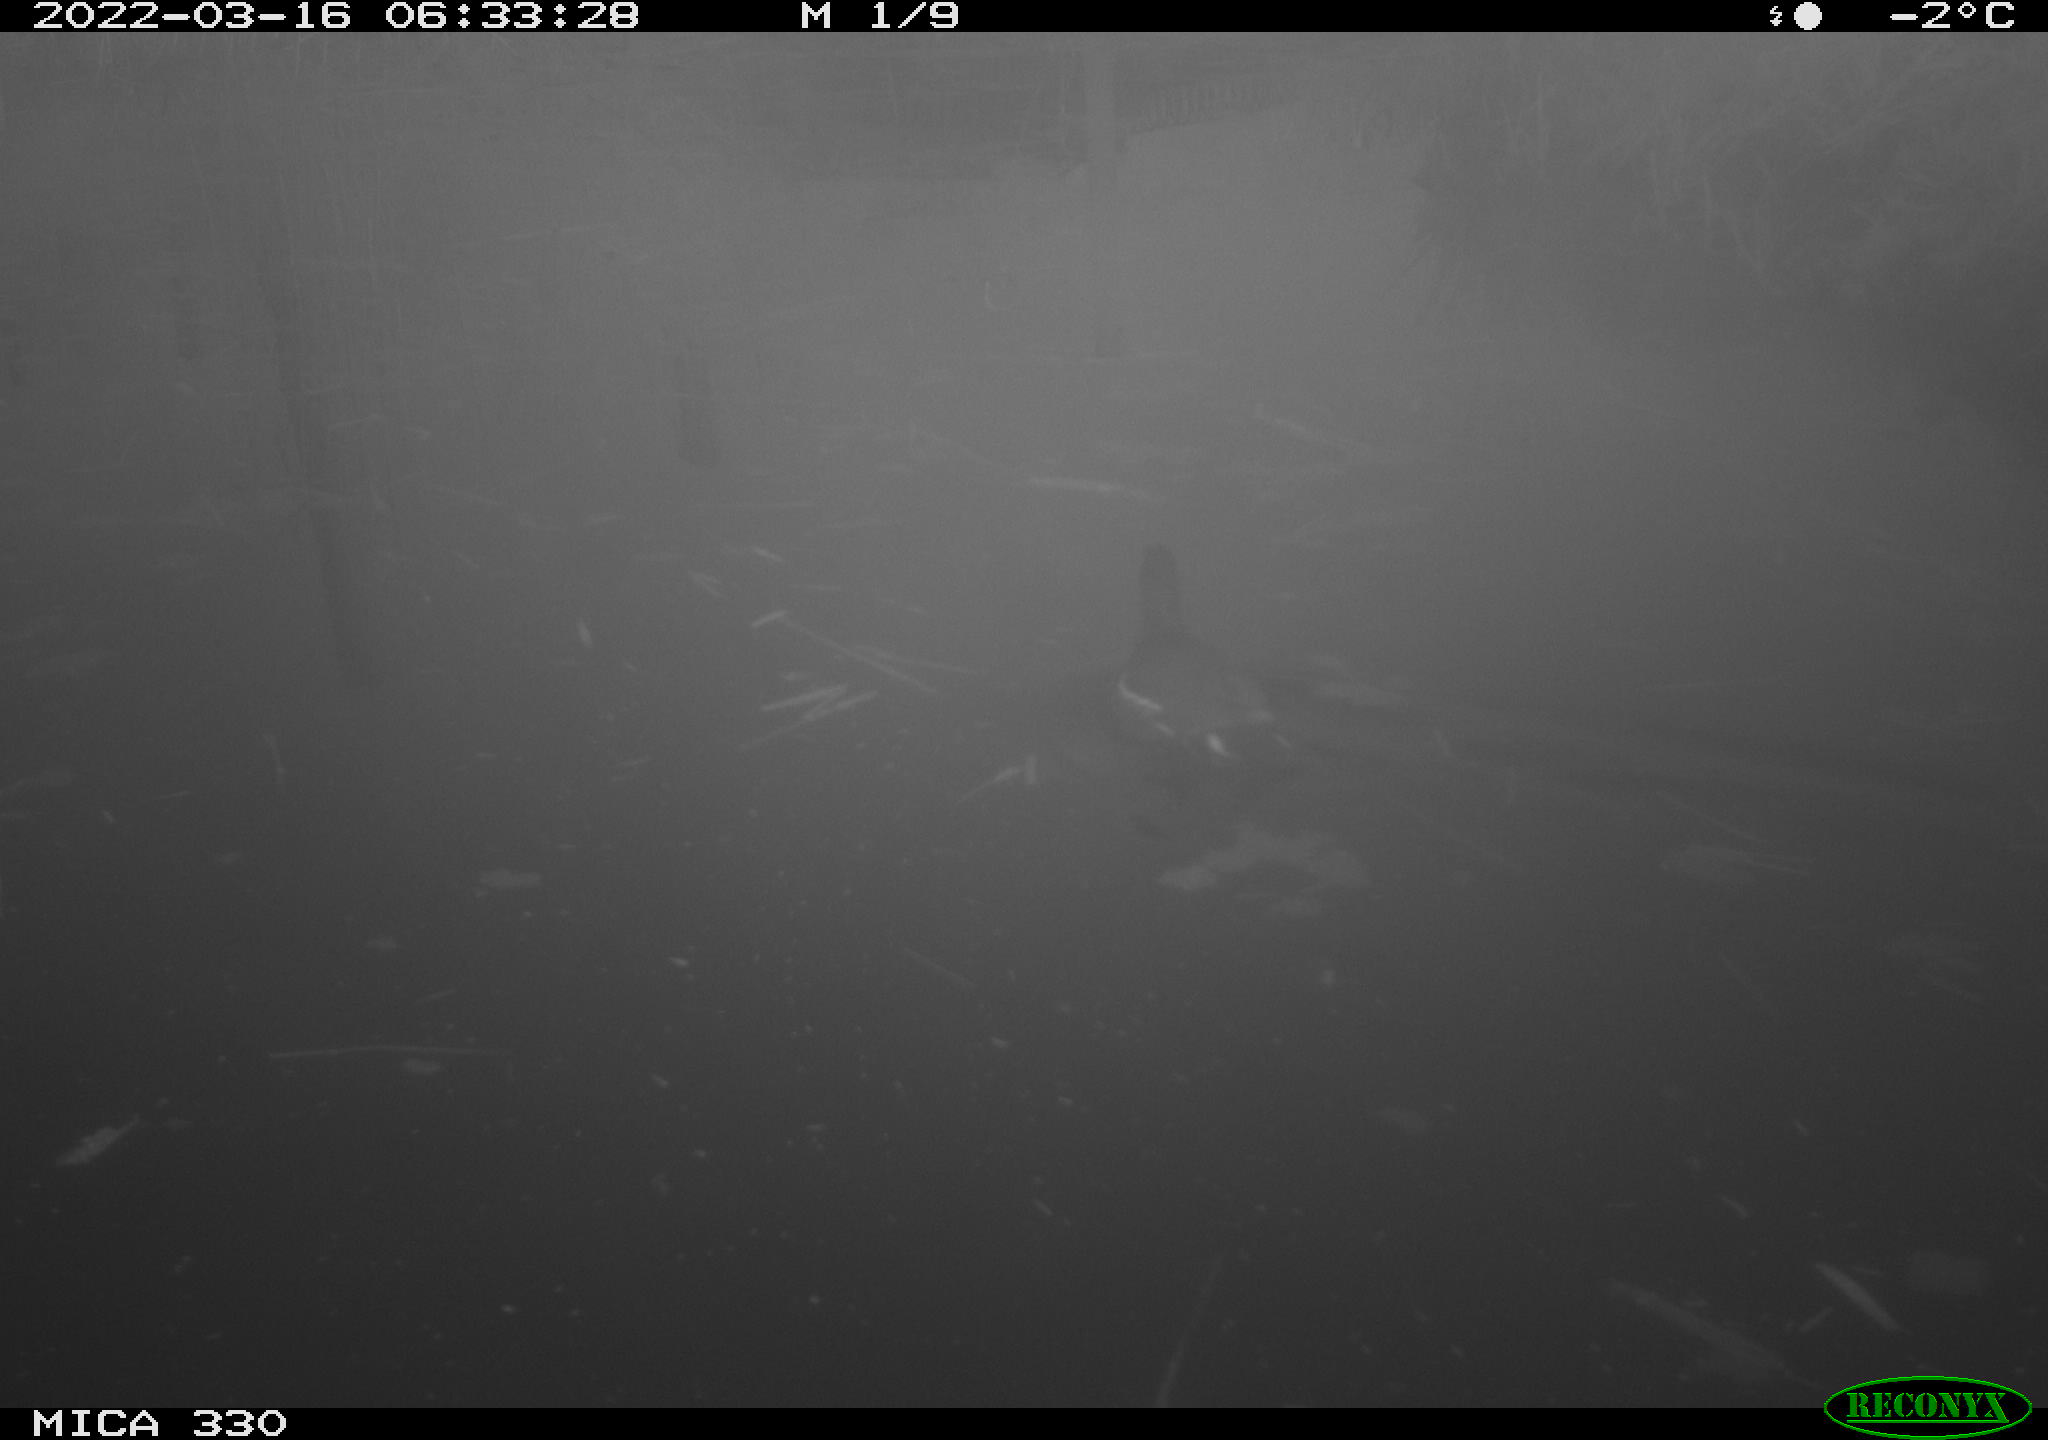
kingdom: Animalia
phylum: Chordata
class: Aves
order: Gruiformes
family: Rallidae
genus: Gallinula
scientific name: Gallinula chloropus
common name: Common moorhen
